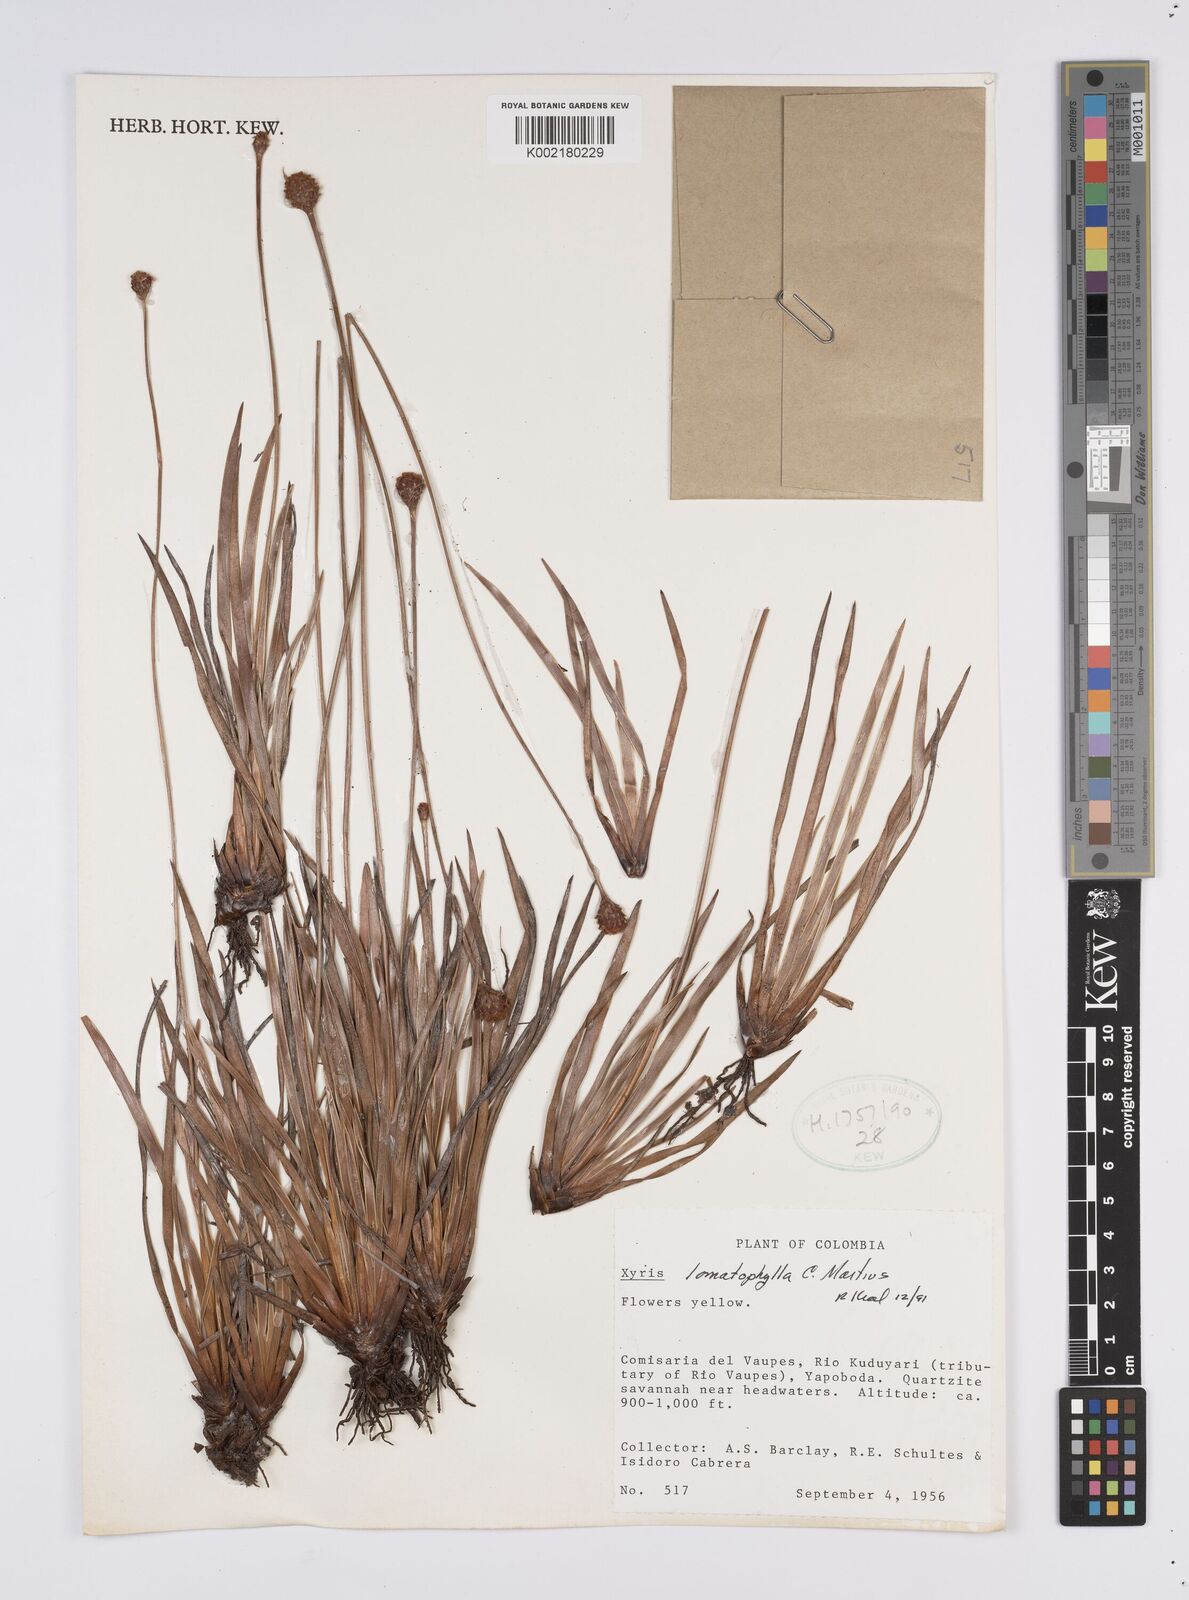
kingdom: Plantae
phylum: Tracheophyta
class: Liliopsida
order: Poales
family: Xyridaceae
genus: Xyris
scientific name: Xyris lomatophylla
